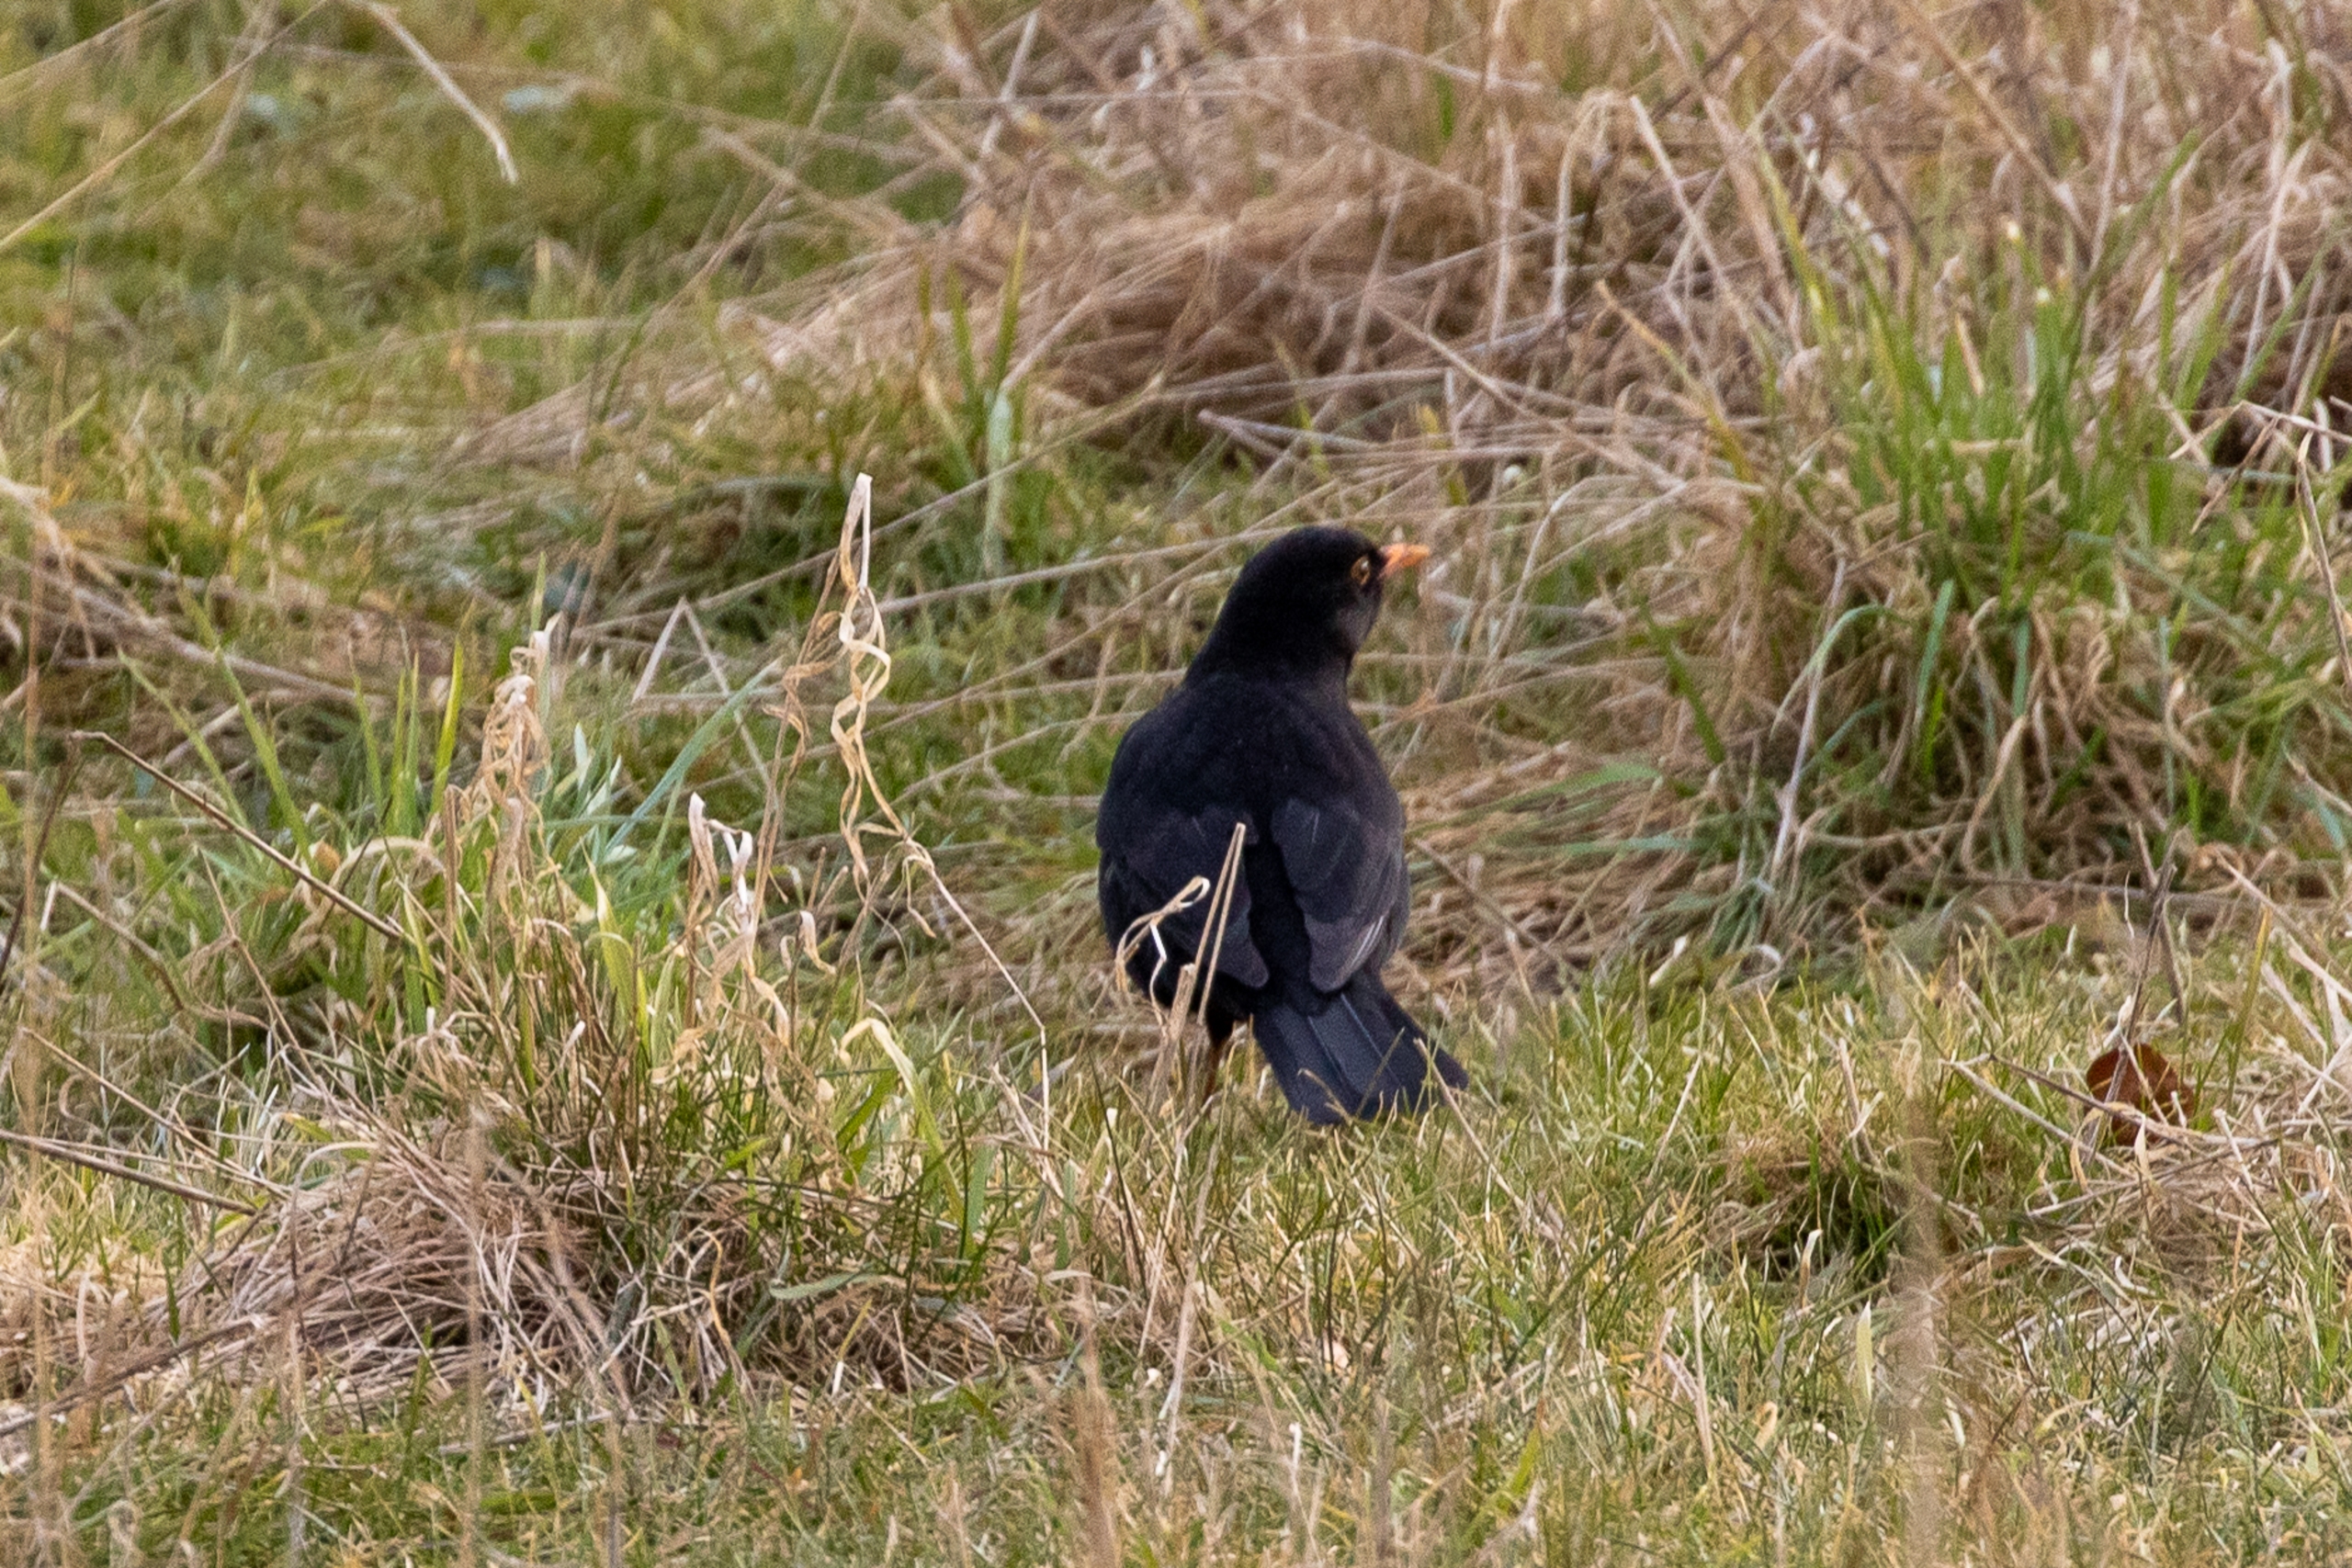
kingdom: Animalia
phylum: Chordata
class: Aves
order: Passeriformes
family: Turdidae
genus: Turdus
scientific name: Turdus merula
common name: Solsort
